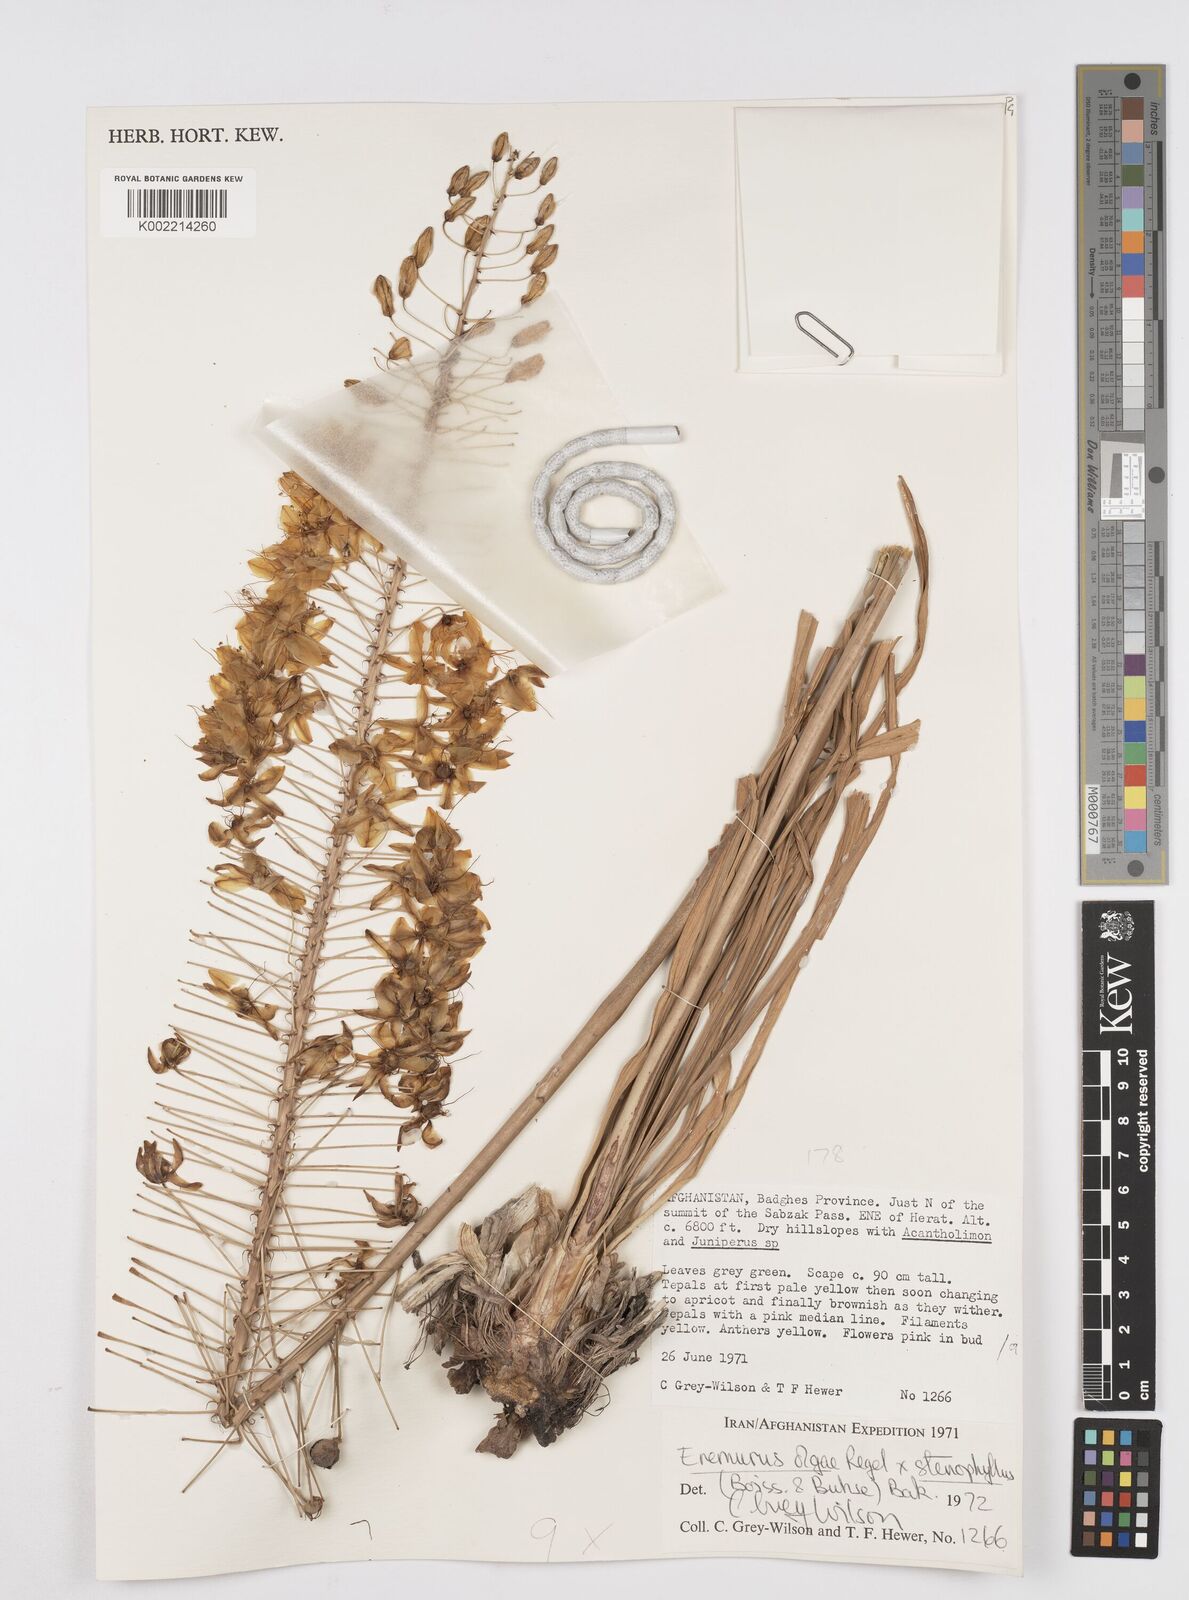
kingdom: Plantae
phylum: Tracheophyta
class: Liliopsida
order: Asparagales
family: Asphodelaceae
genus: Eremurus
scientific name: Eremurus olgae
